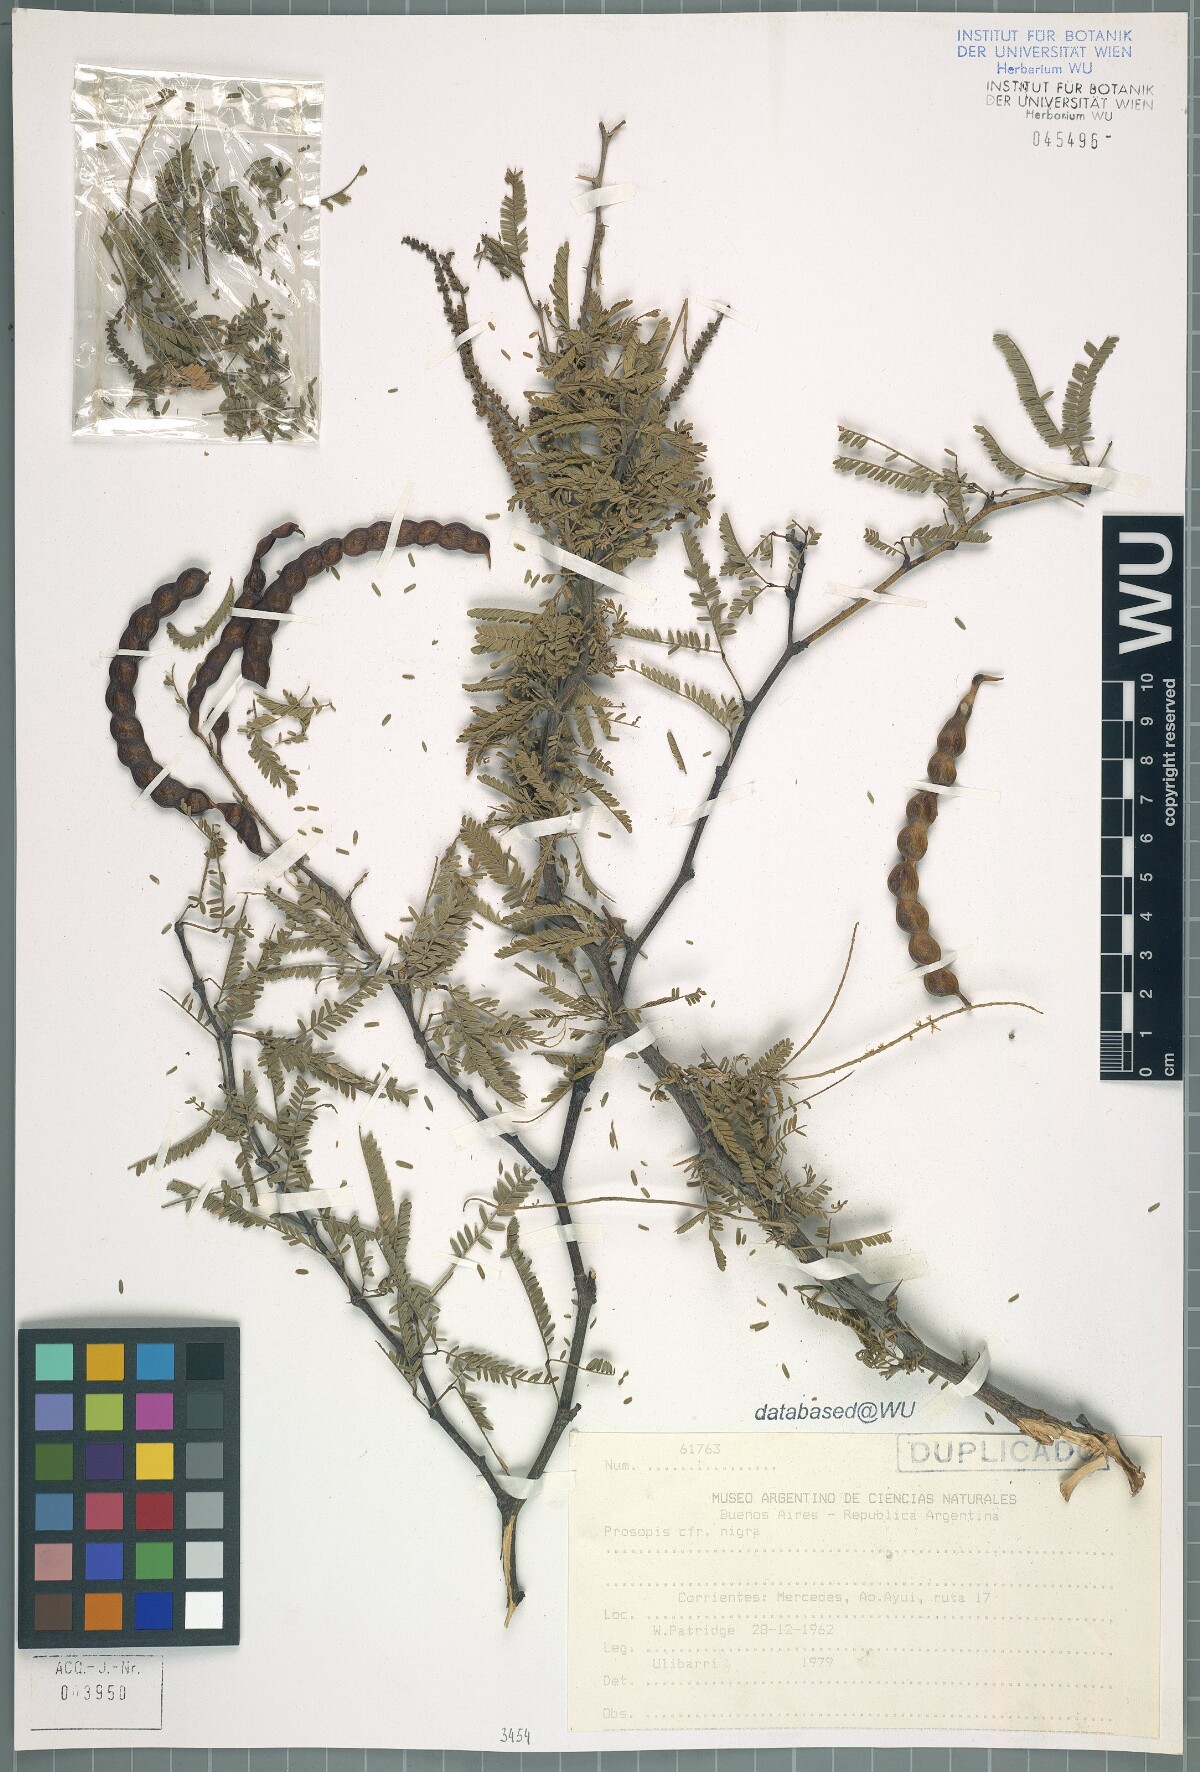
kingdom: Plantae
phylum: Tracheophyta
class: Magnoliopsida
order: Fabales
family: Fabaceae
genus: Prosopis
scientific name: Prosopis nigra
